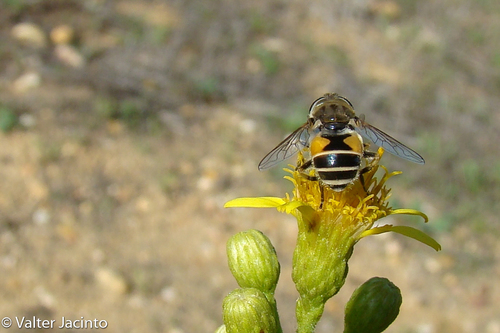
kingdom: Animalia
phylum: Arthropoda
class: Insecta
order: Diptera
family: Syrphidae
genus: Eristalis
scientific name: Eristalis arbustorum
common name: Hover fly
